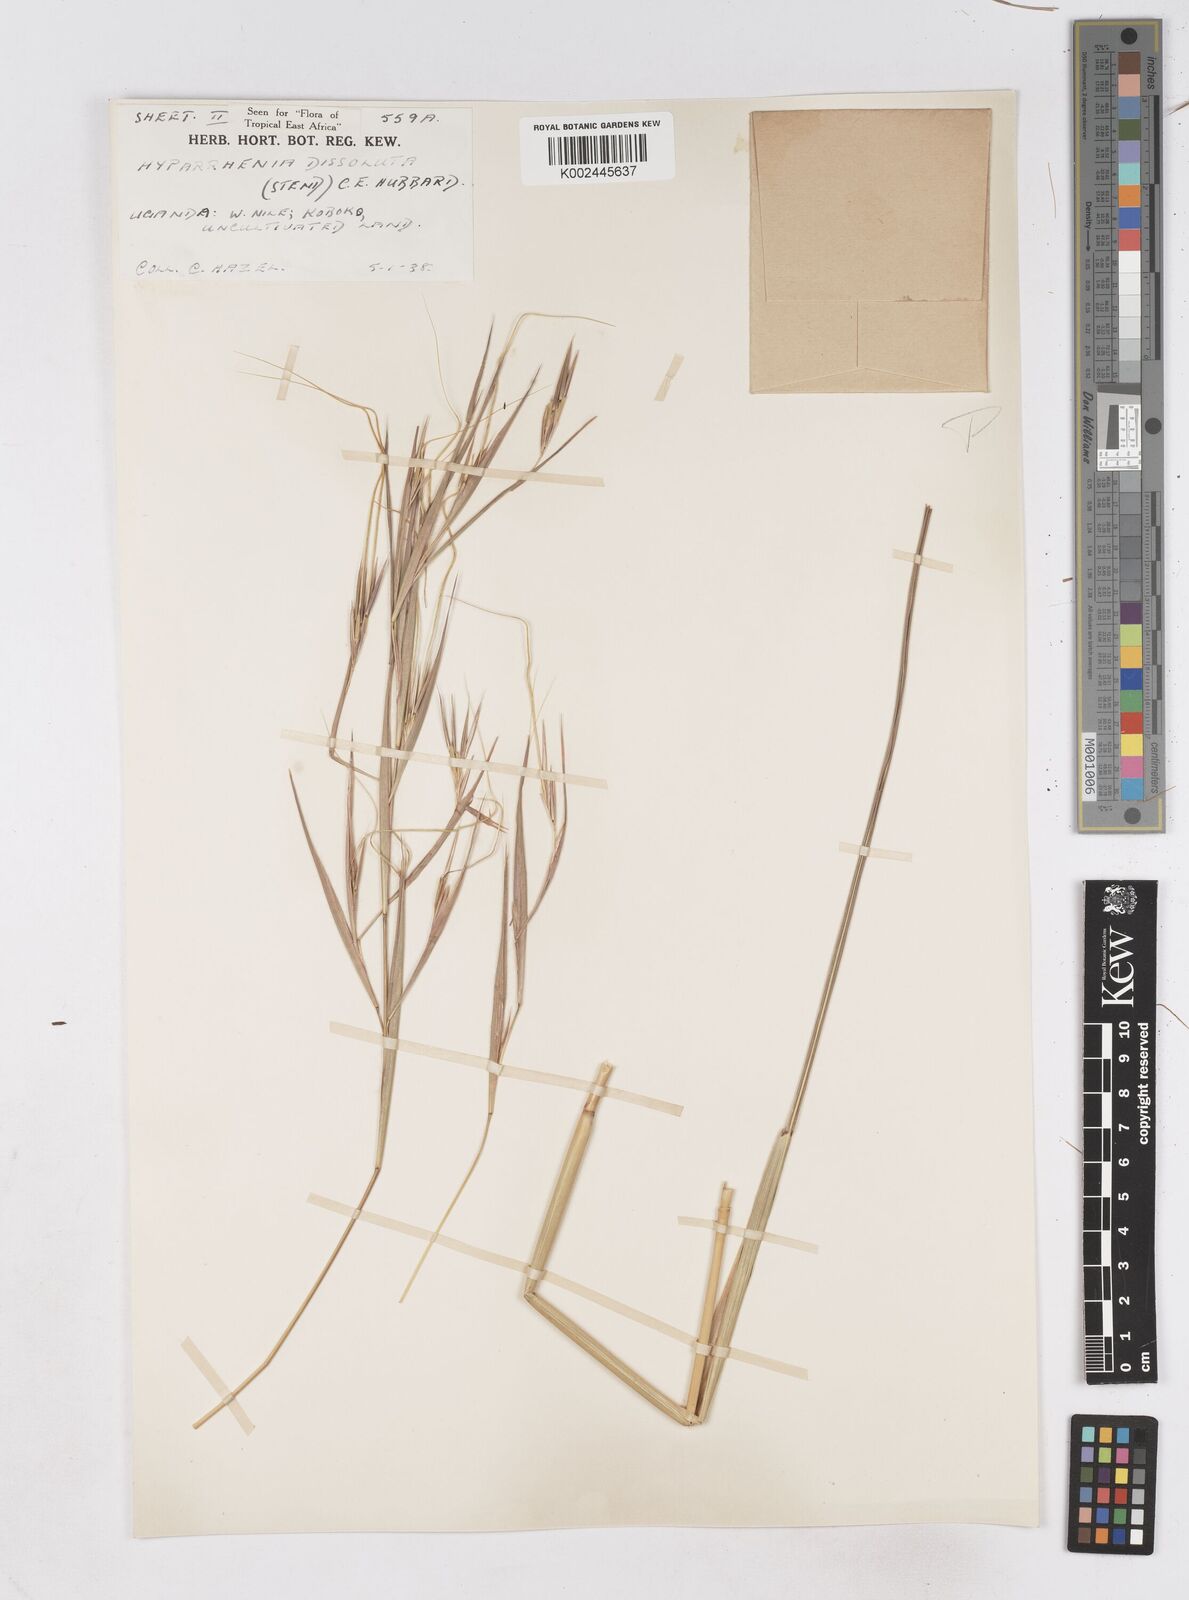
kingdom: Plantae
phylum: Tracheophyta
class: Liliopsida
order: Poales
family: Poaceae
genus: Hyperthelia
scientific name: Hyperthelia dissoluta
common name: Yellow thatching grass
